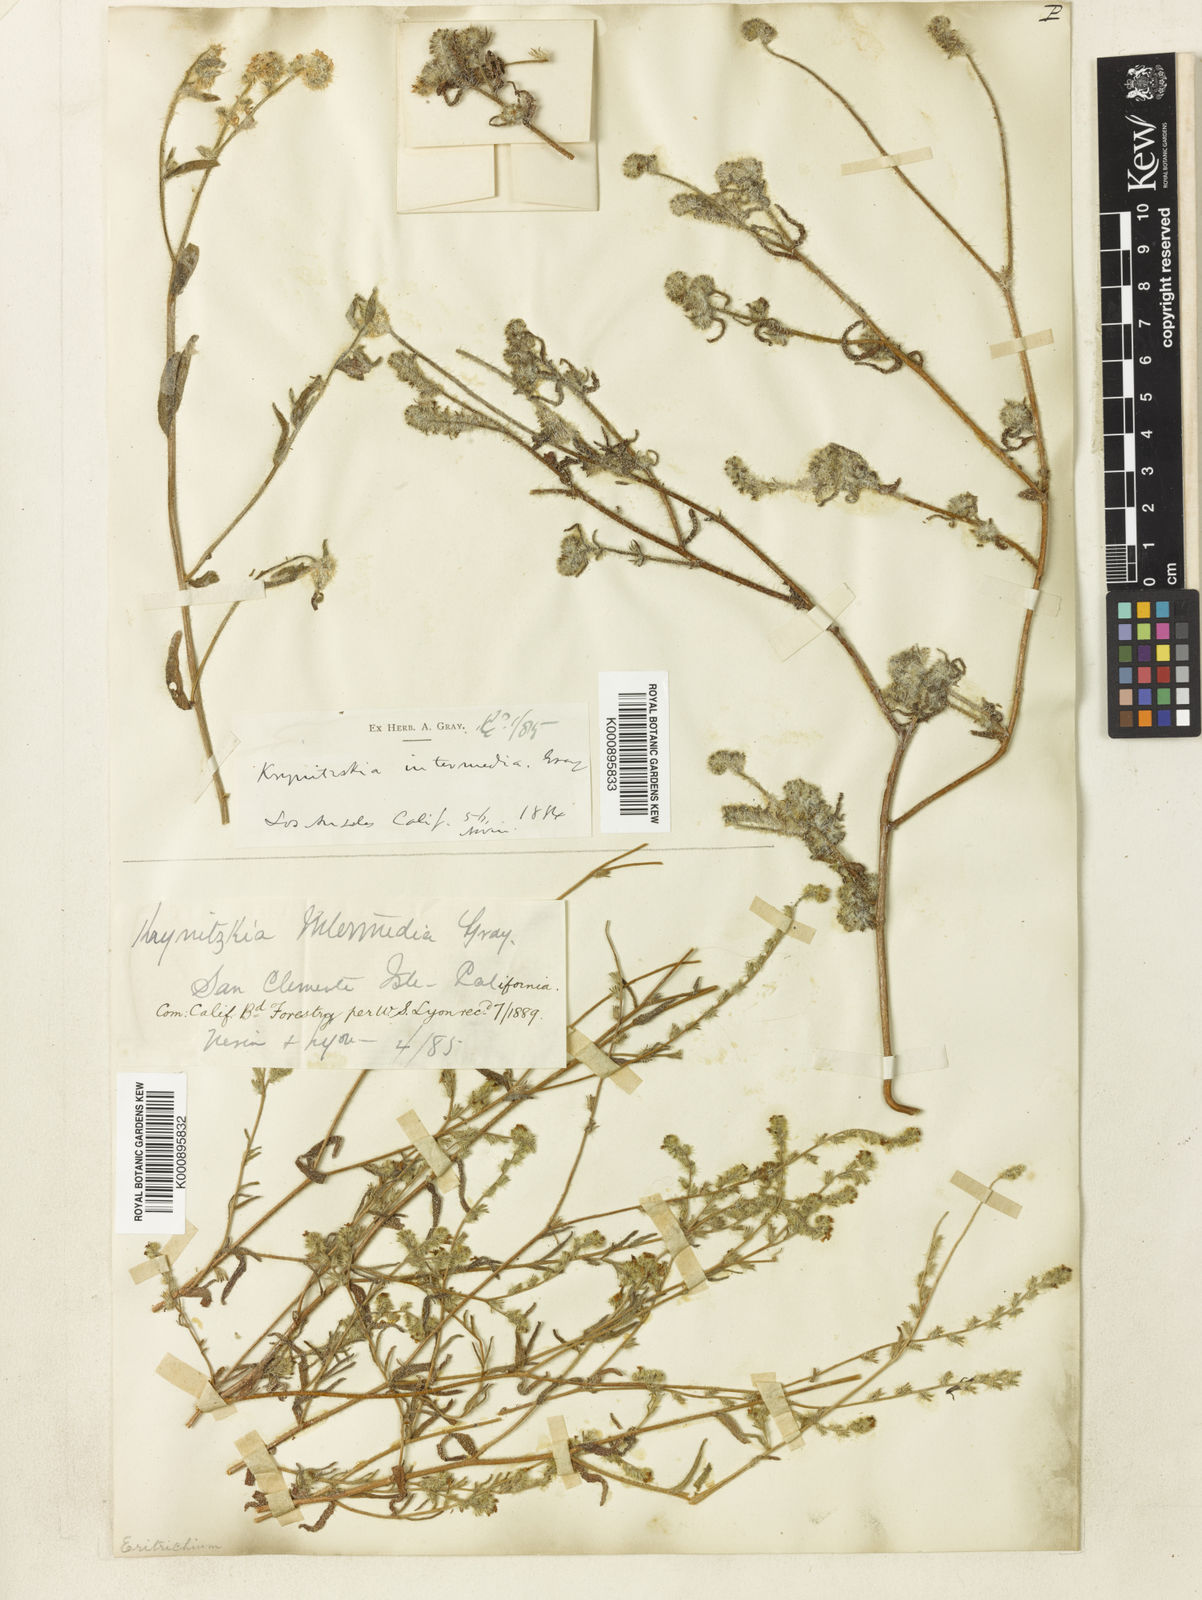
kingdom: Plantae
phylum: Tracheophyta
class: Magnoliopsida
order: Boraginales
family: Boraginaceae
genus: Cryptantha
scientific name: Cryptantha intermedia
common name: Clearwater cryptantha
